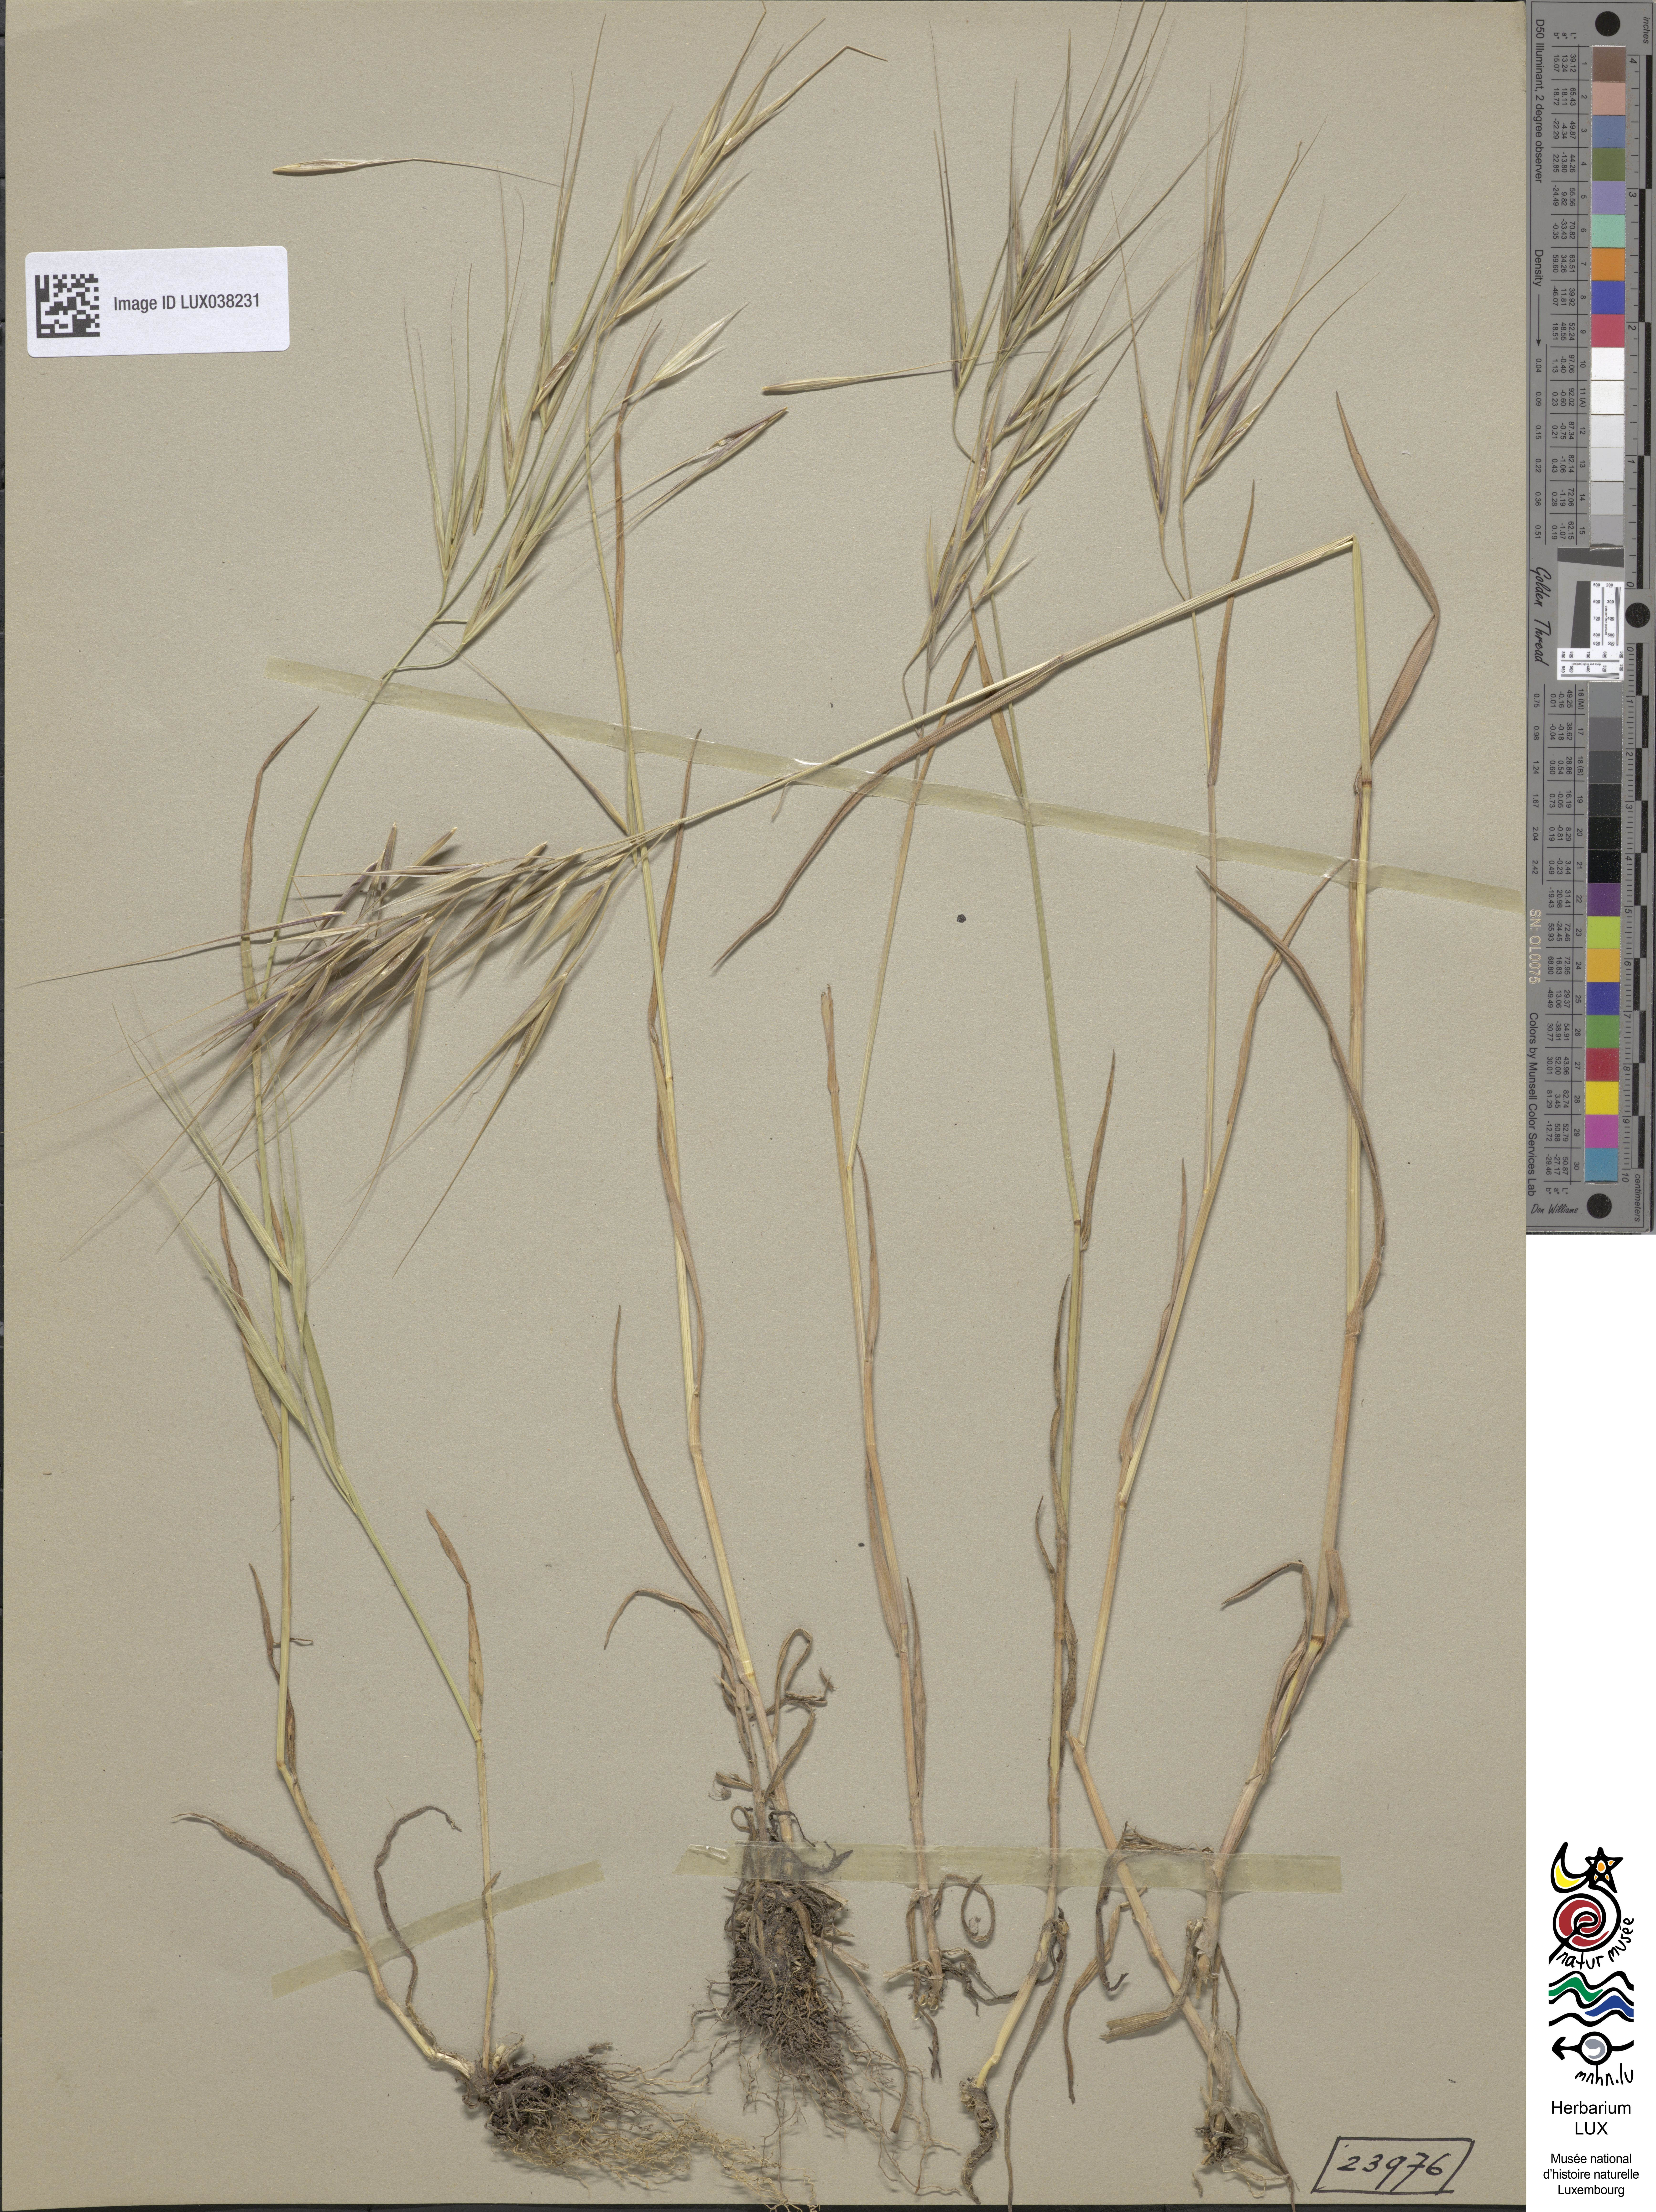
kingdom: Plantae
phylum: Tracheophyta
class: Liliopsida
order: Poales
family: Poaceae
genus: Bromus
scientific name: Bromus diandrus
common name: Ripgut brome
